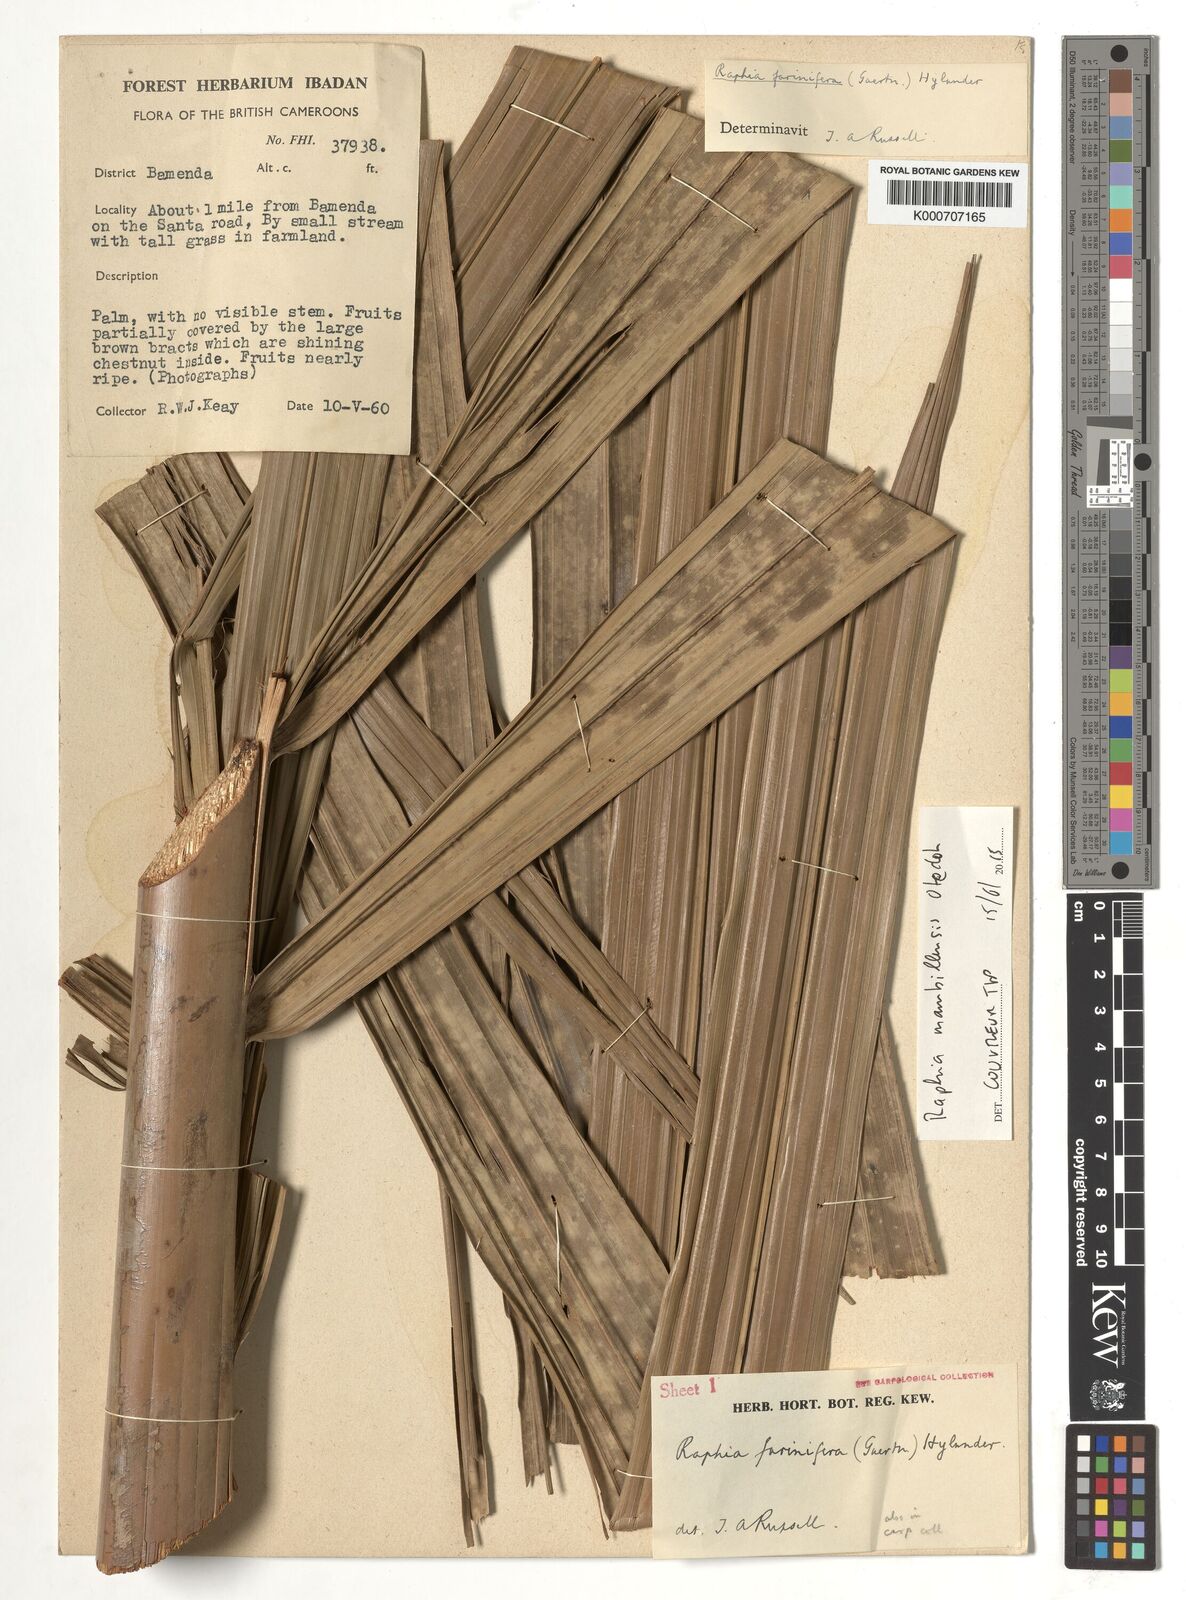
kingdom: Plantae
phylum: Tracheophyta
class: Liliopsida
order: Arecales
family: Arecaceae
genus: Raphia
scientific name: Raphia farinifera
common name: Raphia palm
